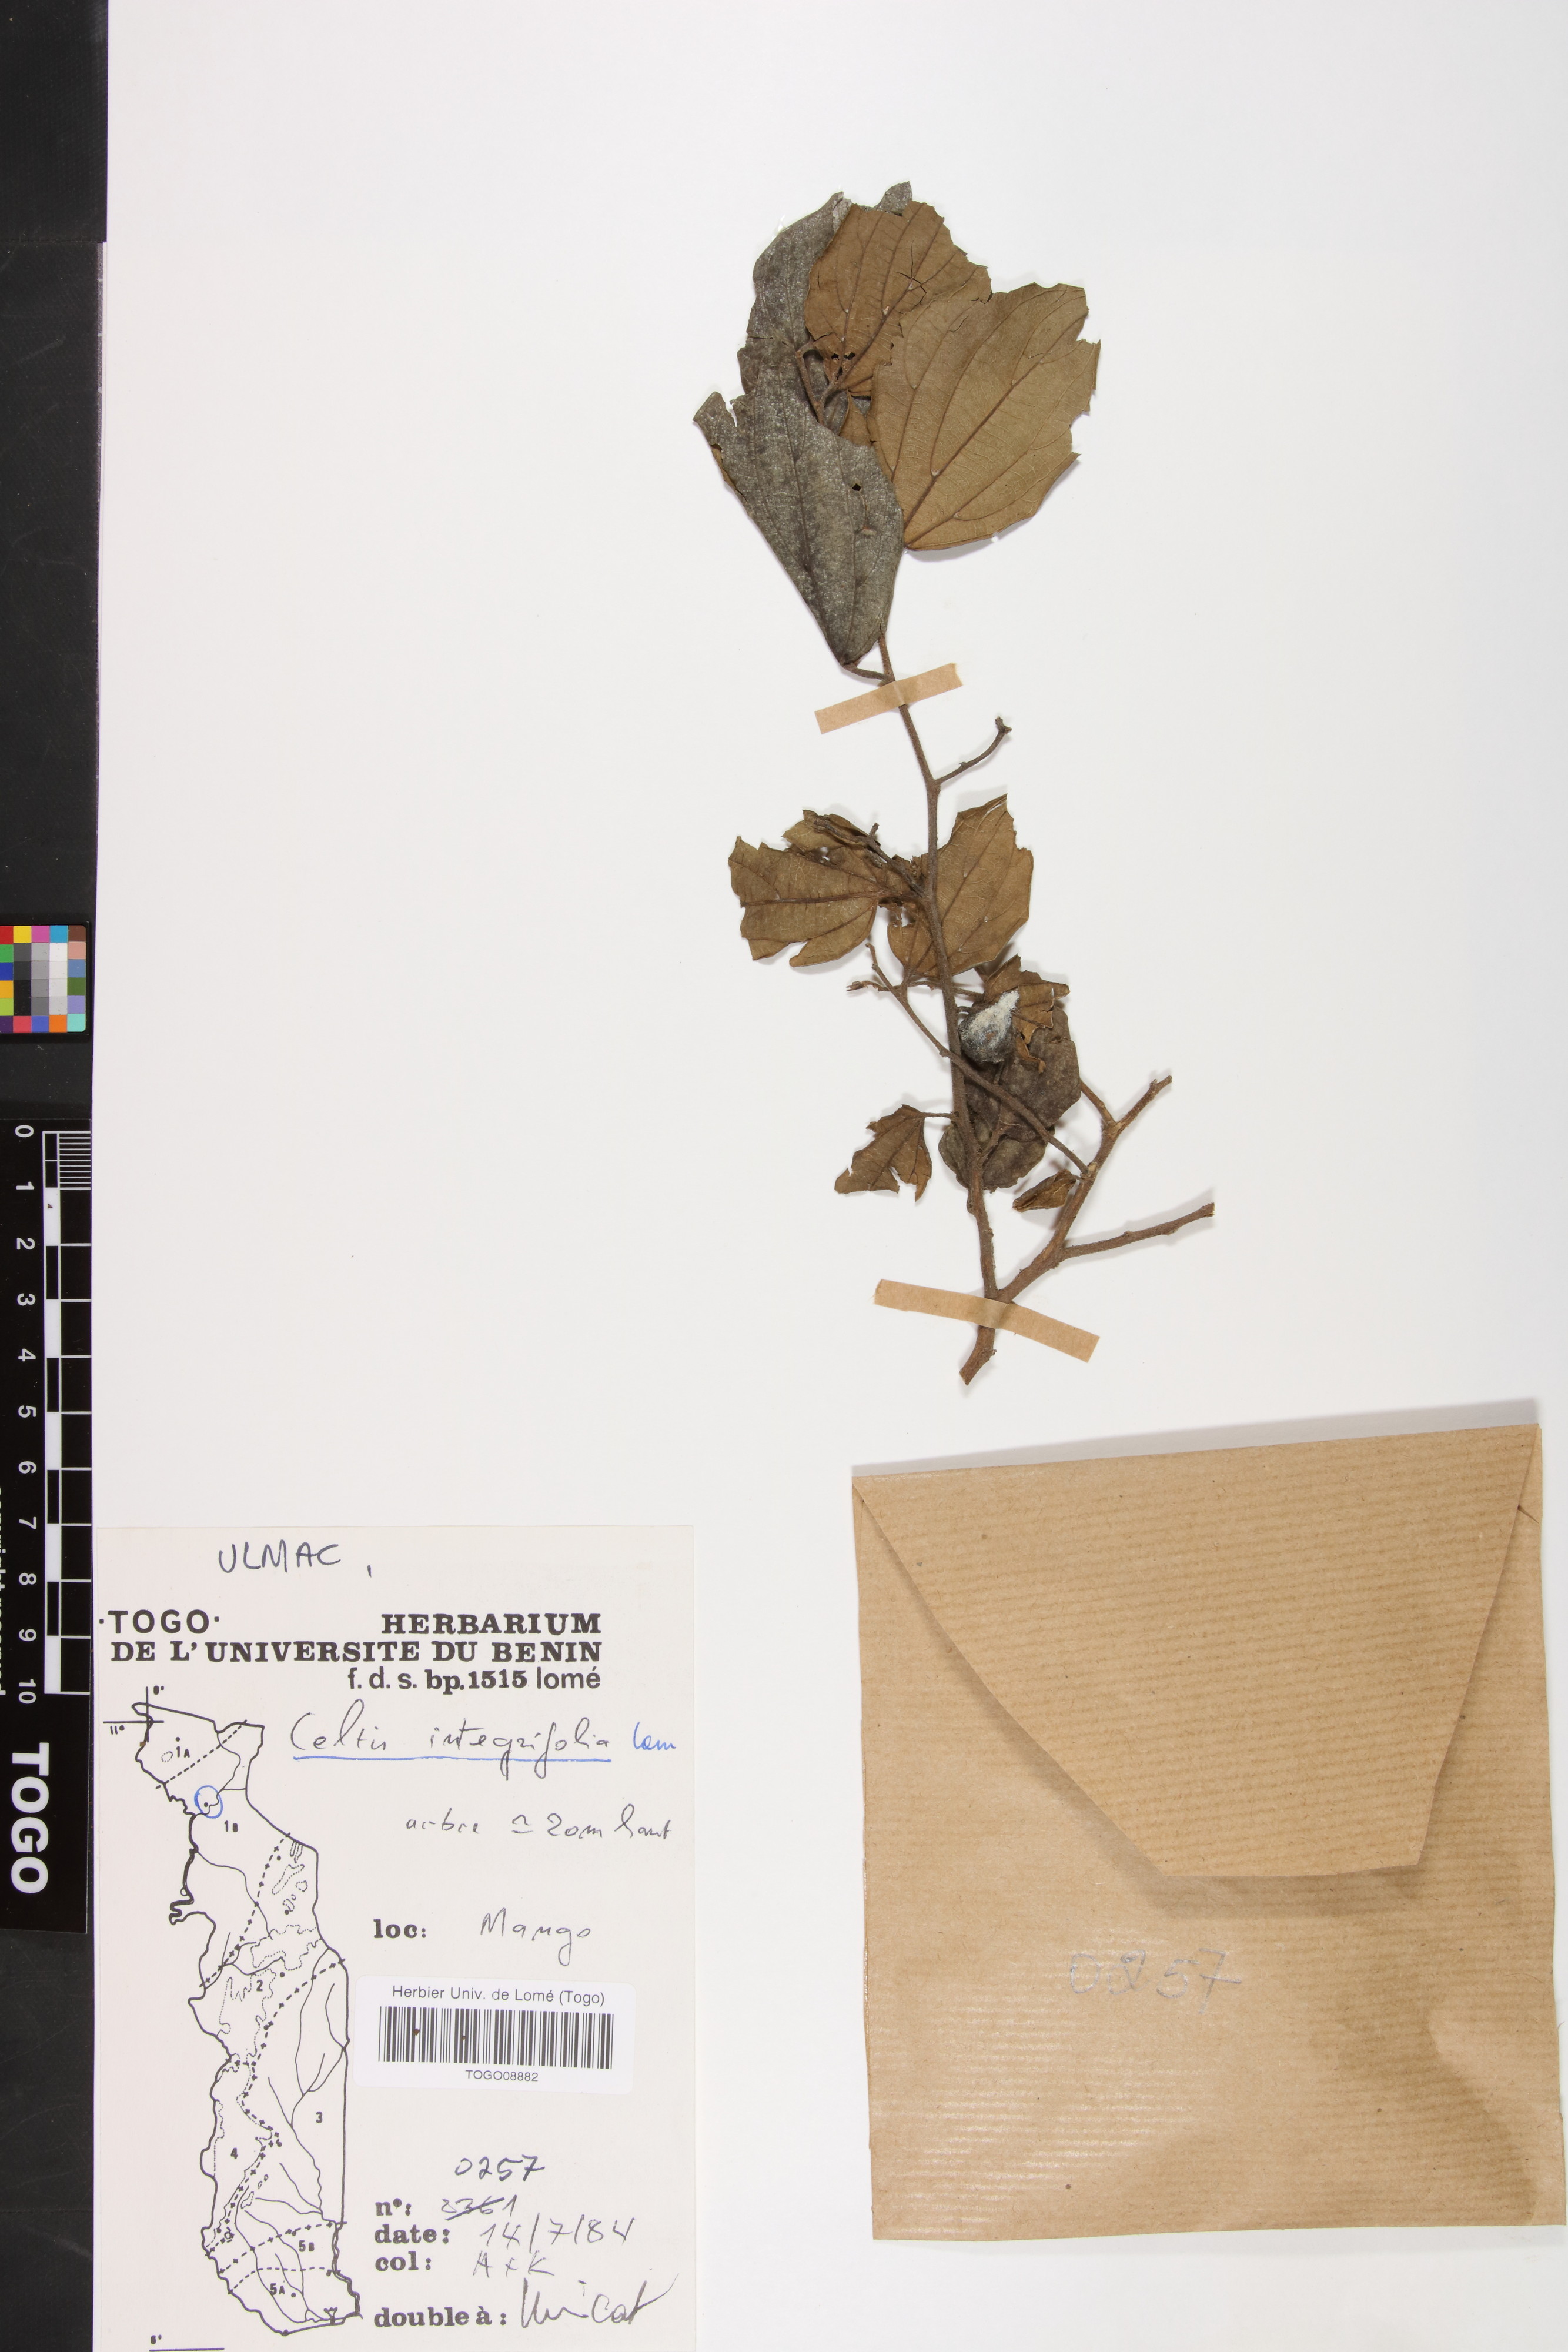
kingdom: Plantae
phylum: Tracheophyta
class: Magnoliopsida
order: Rosales
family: Cannabaceae
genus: Celtis
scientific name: Celtis toka
